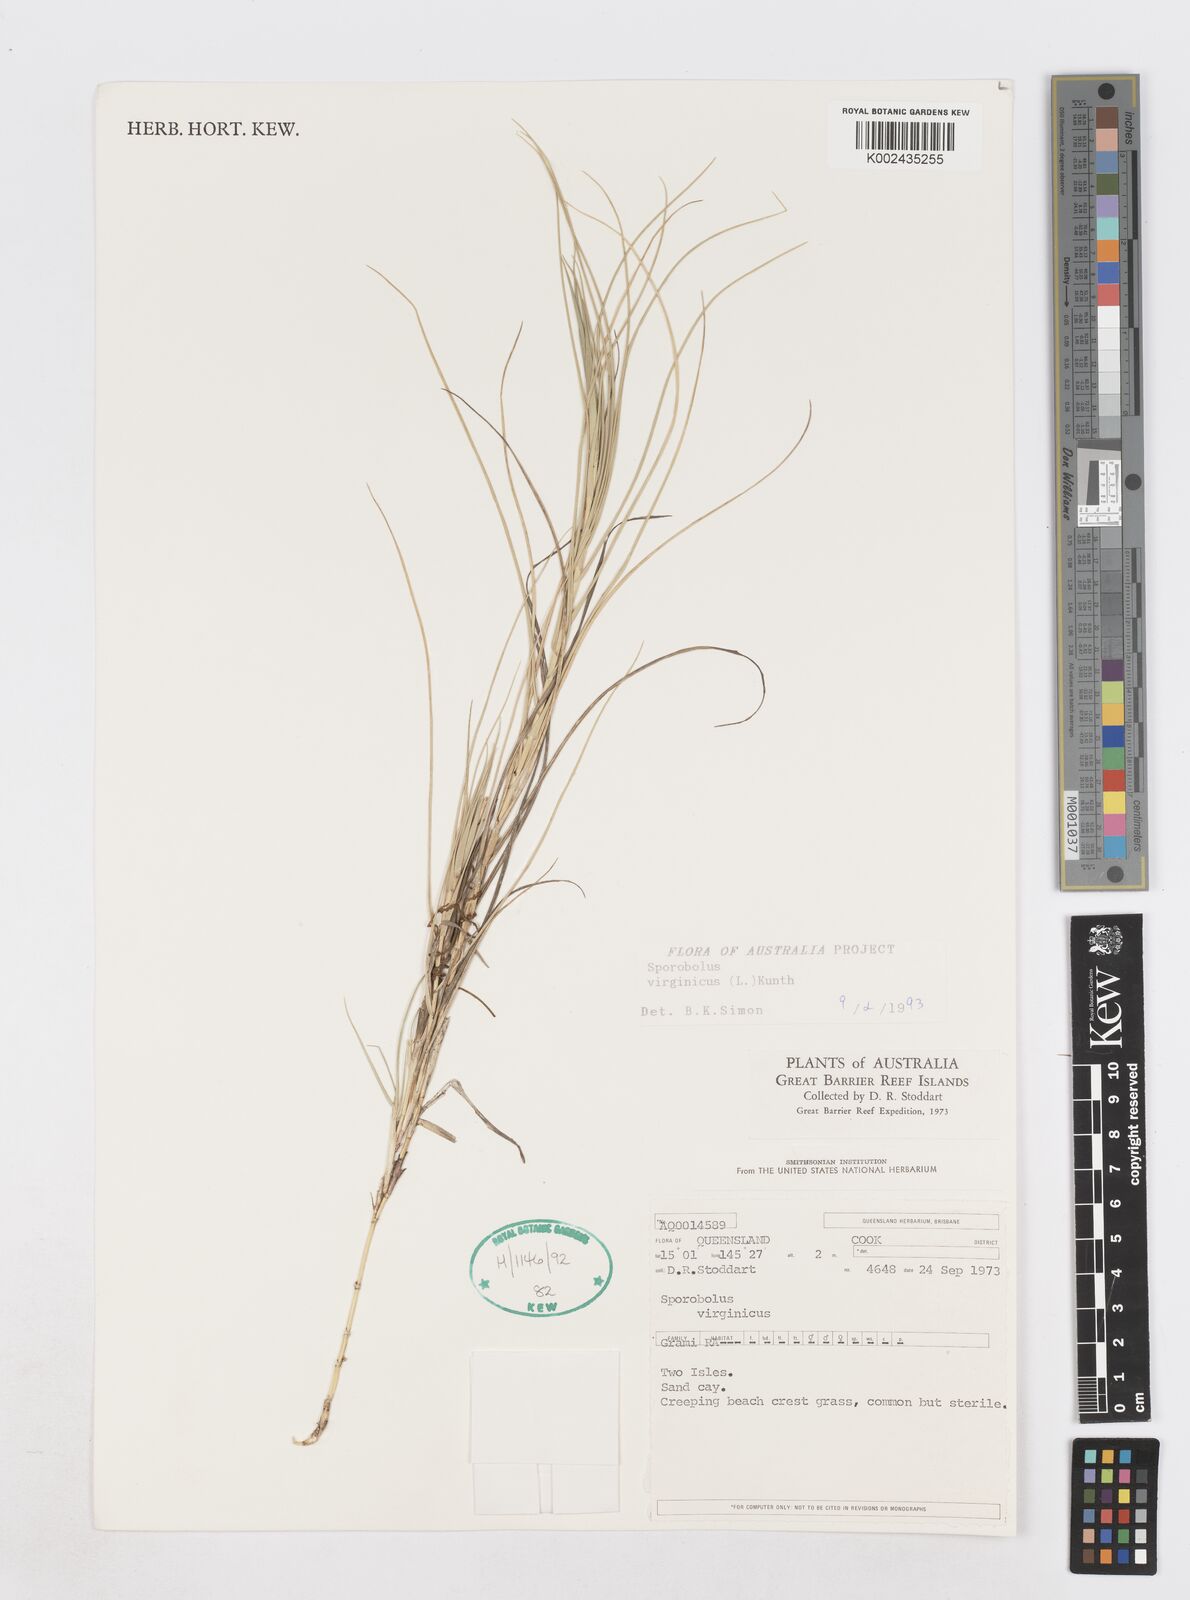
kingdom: Plantae
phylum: Tracheophyta
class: Liliopsida
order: Poales
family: Poaceae
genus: Sporobolus
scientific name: Sporobolus virginicus
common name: Beach dropseed
